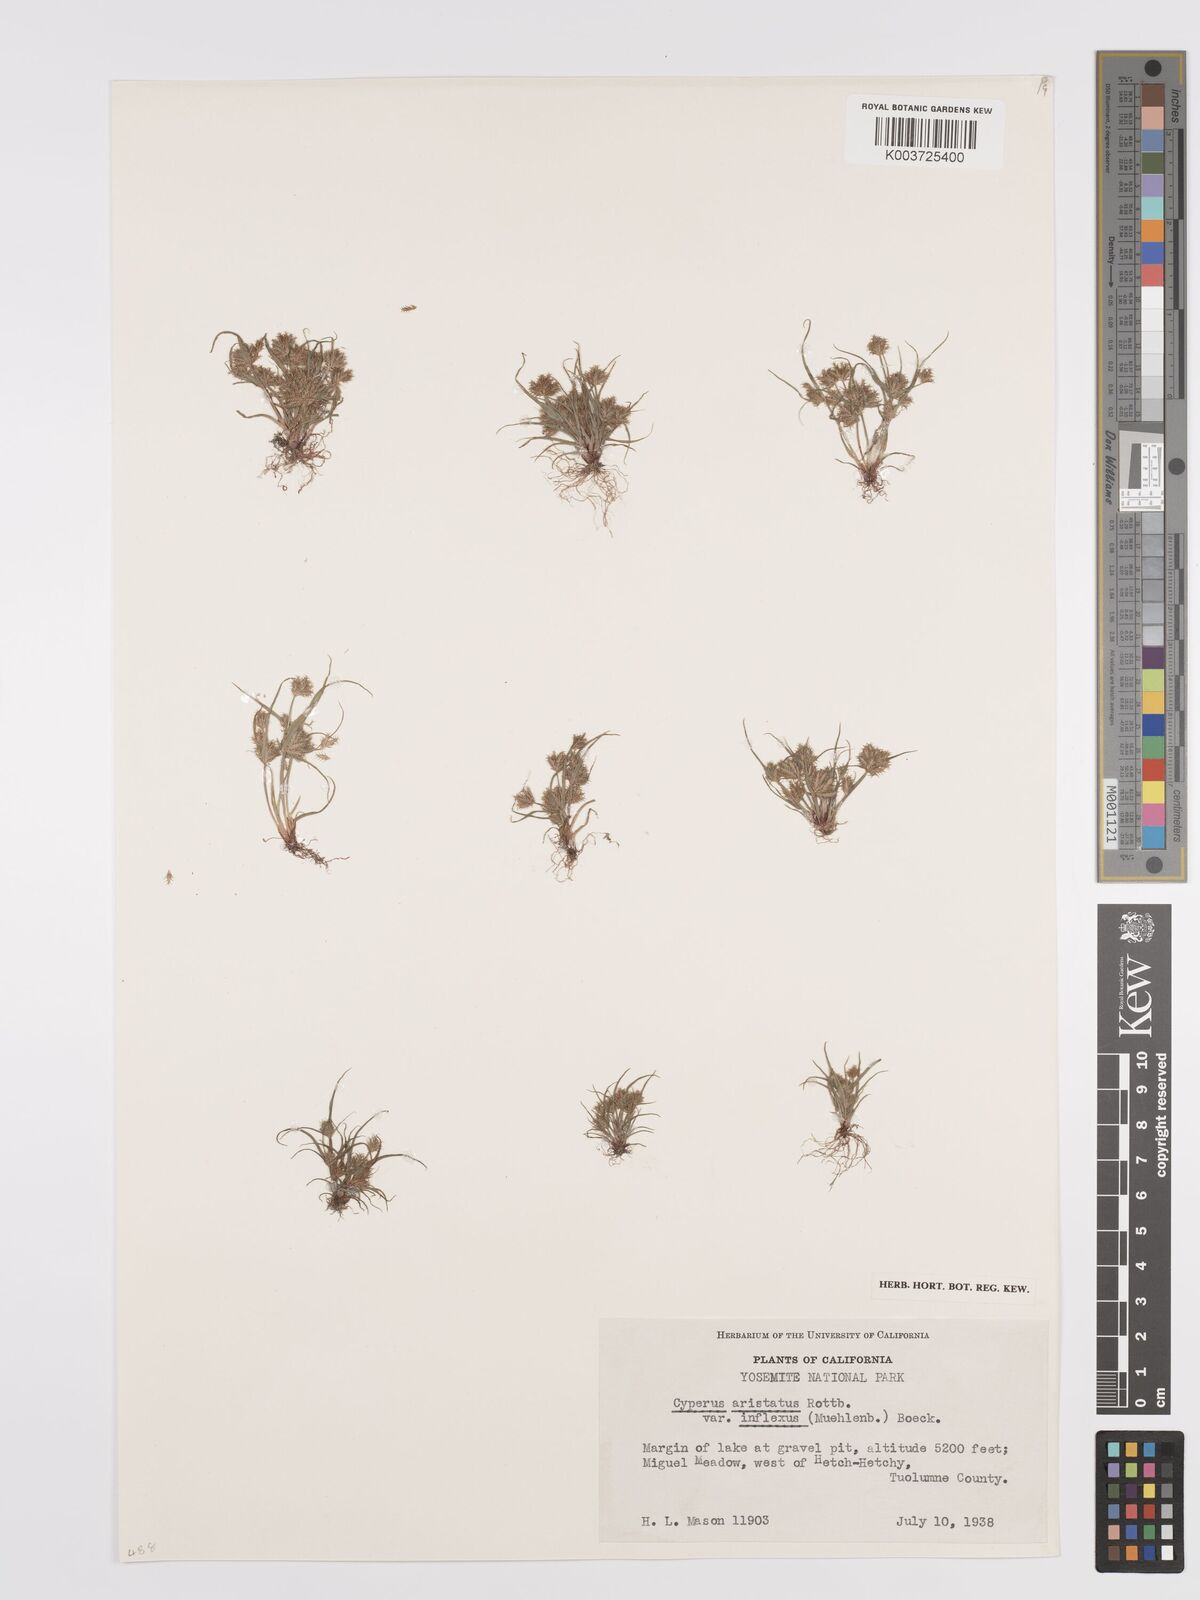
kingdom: Plantae
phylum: Tracheophyta
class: Liliopsida
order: Poales
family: Cyperaceae
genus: Cyperus
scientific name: Cyperus squarrosus
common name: Awned cyperus
